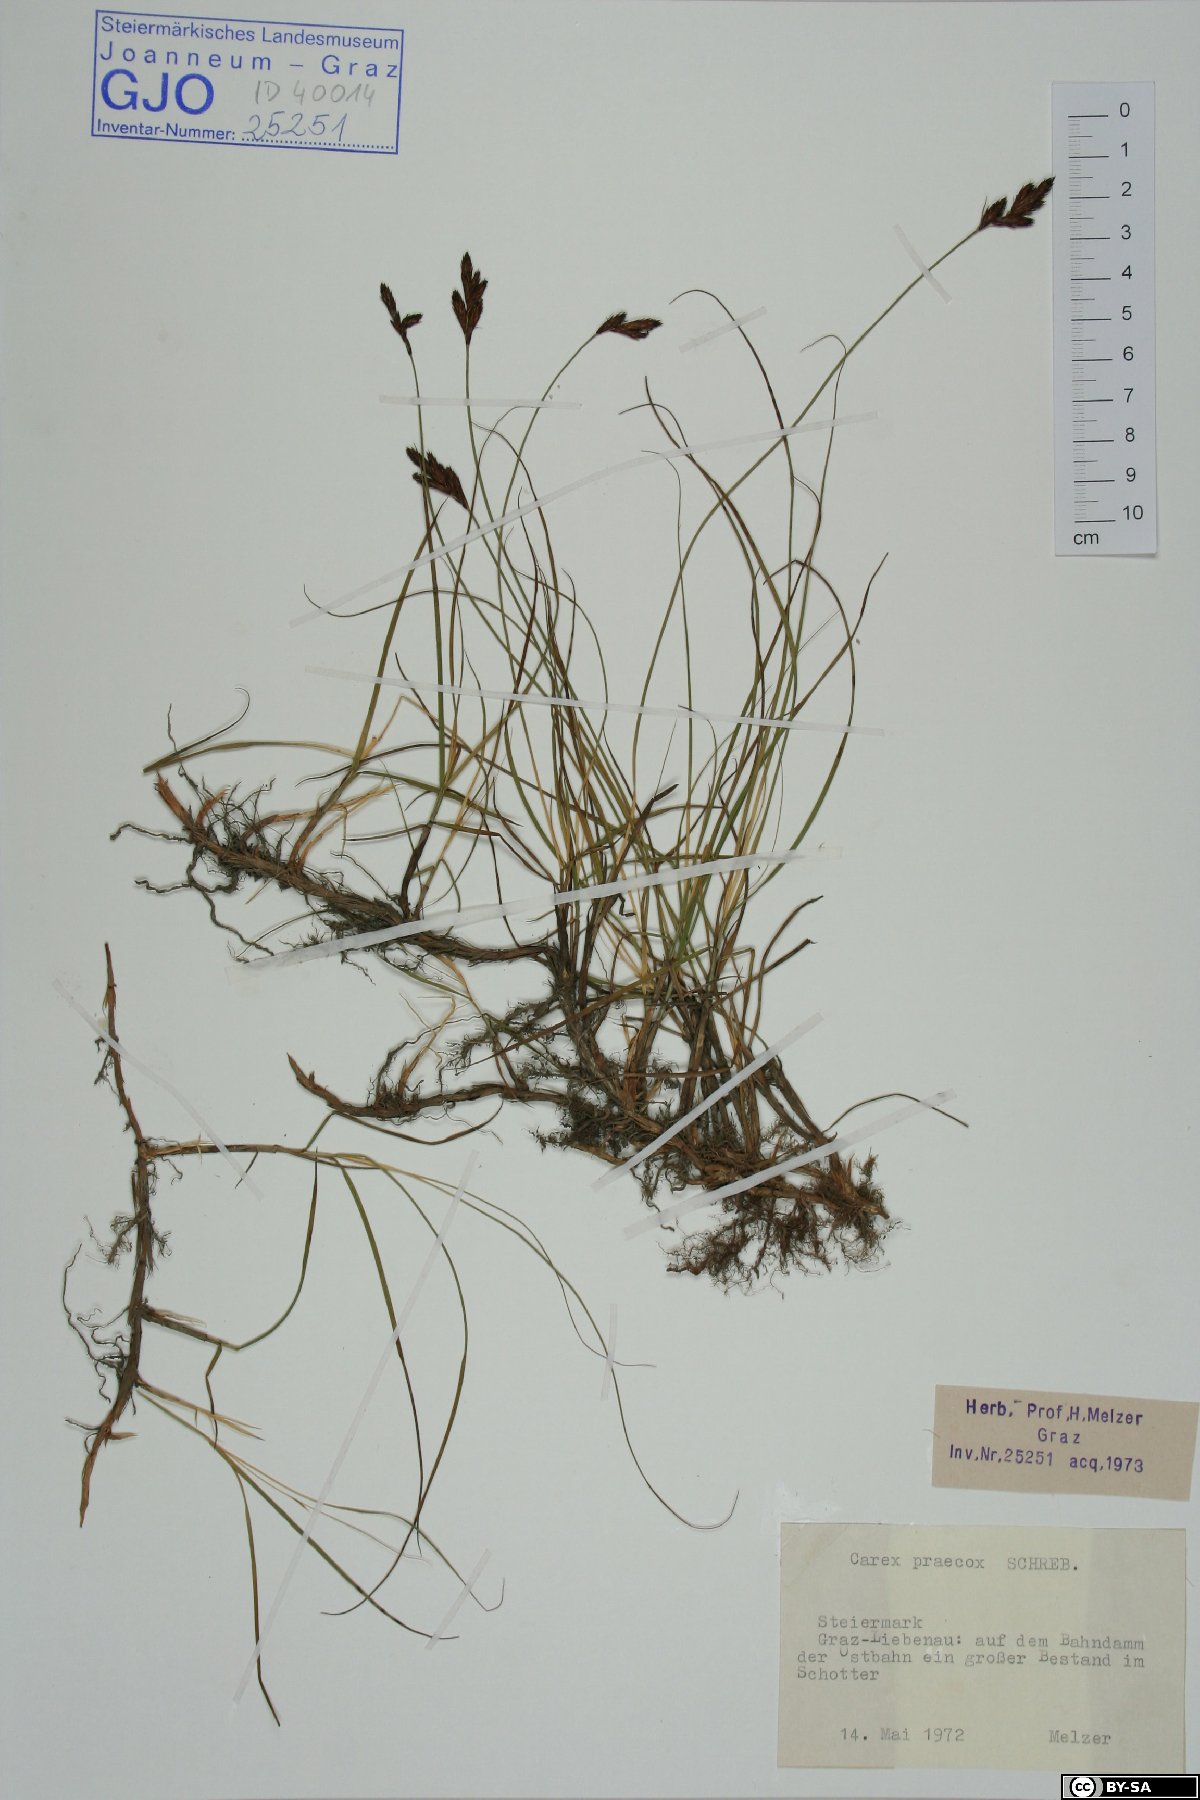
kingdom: Plantae
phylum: Tracheophyta
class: Liliopsida
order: Poales
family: Cyperaceae
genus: Carex
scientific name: Carex praecox
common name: Early sedge
